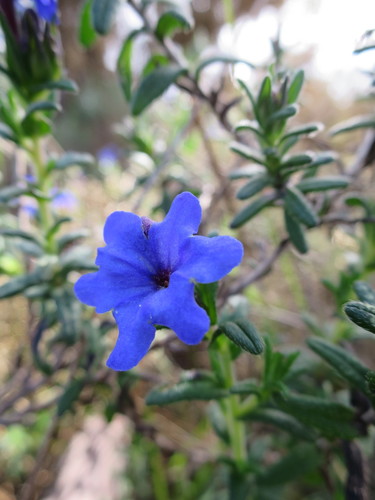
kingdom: Plantae
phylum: Tracheophyta
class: Magnoliopsida
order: Boraginales
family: Boraginaceae
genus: Glandora
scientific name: Glandora prostrata
